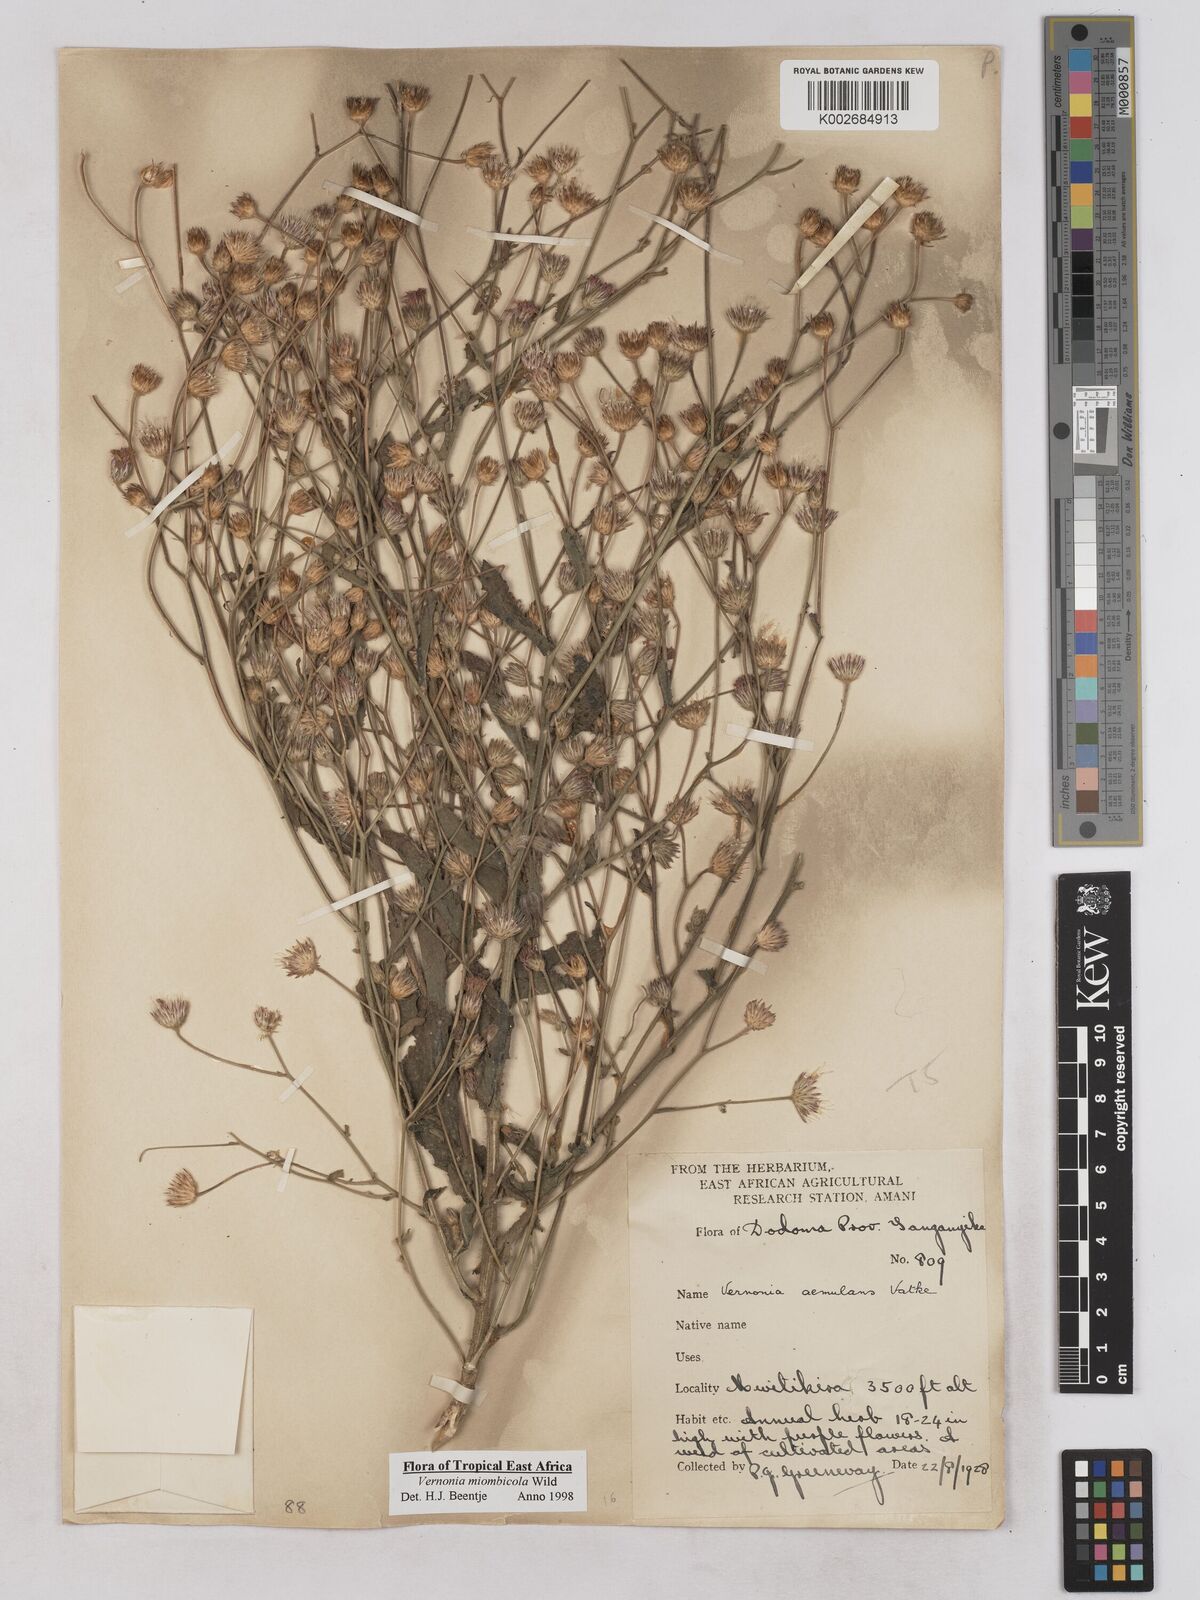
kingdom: Plantae
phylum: Tracheophyta
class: Magnoliopsida
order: Asterales
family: Asteraceae
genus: Vernonia
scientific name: Vernonia miombicola
